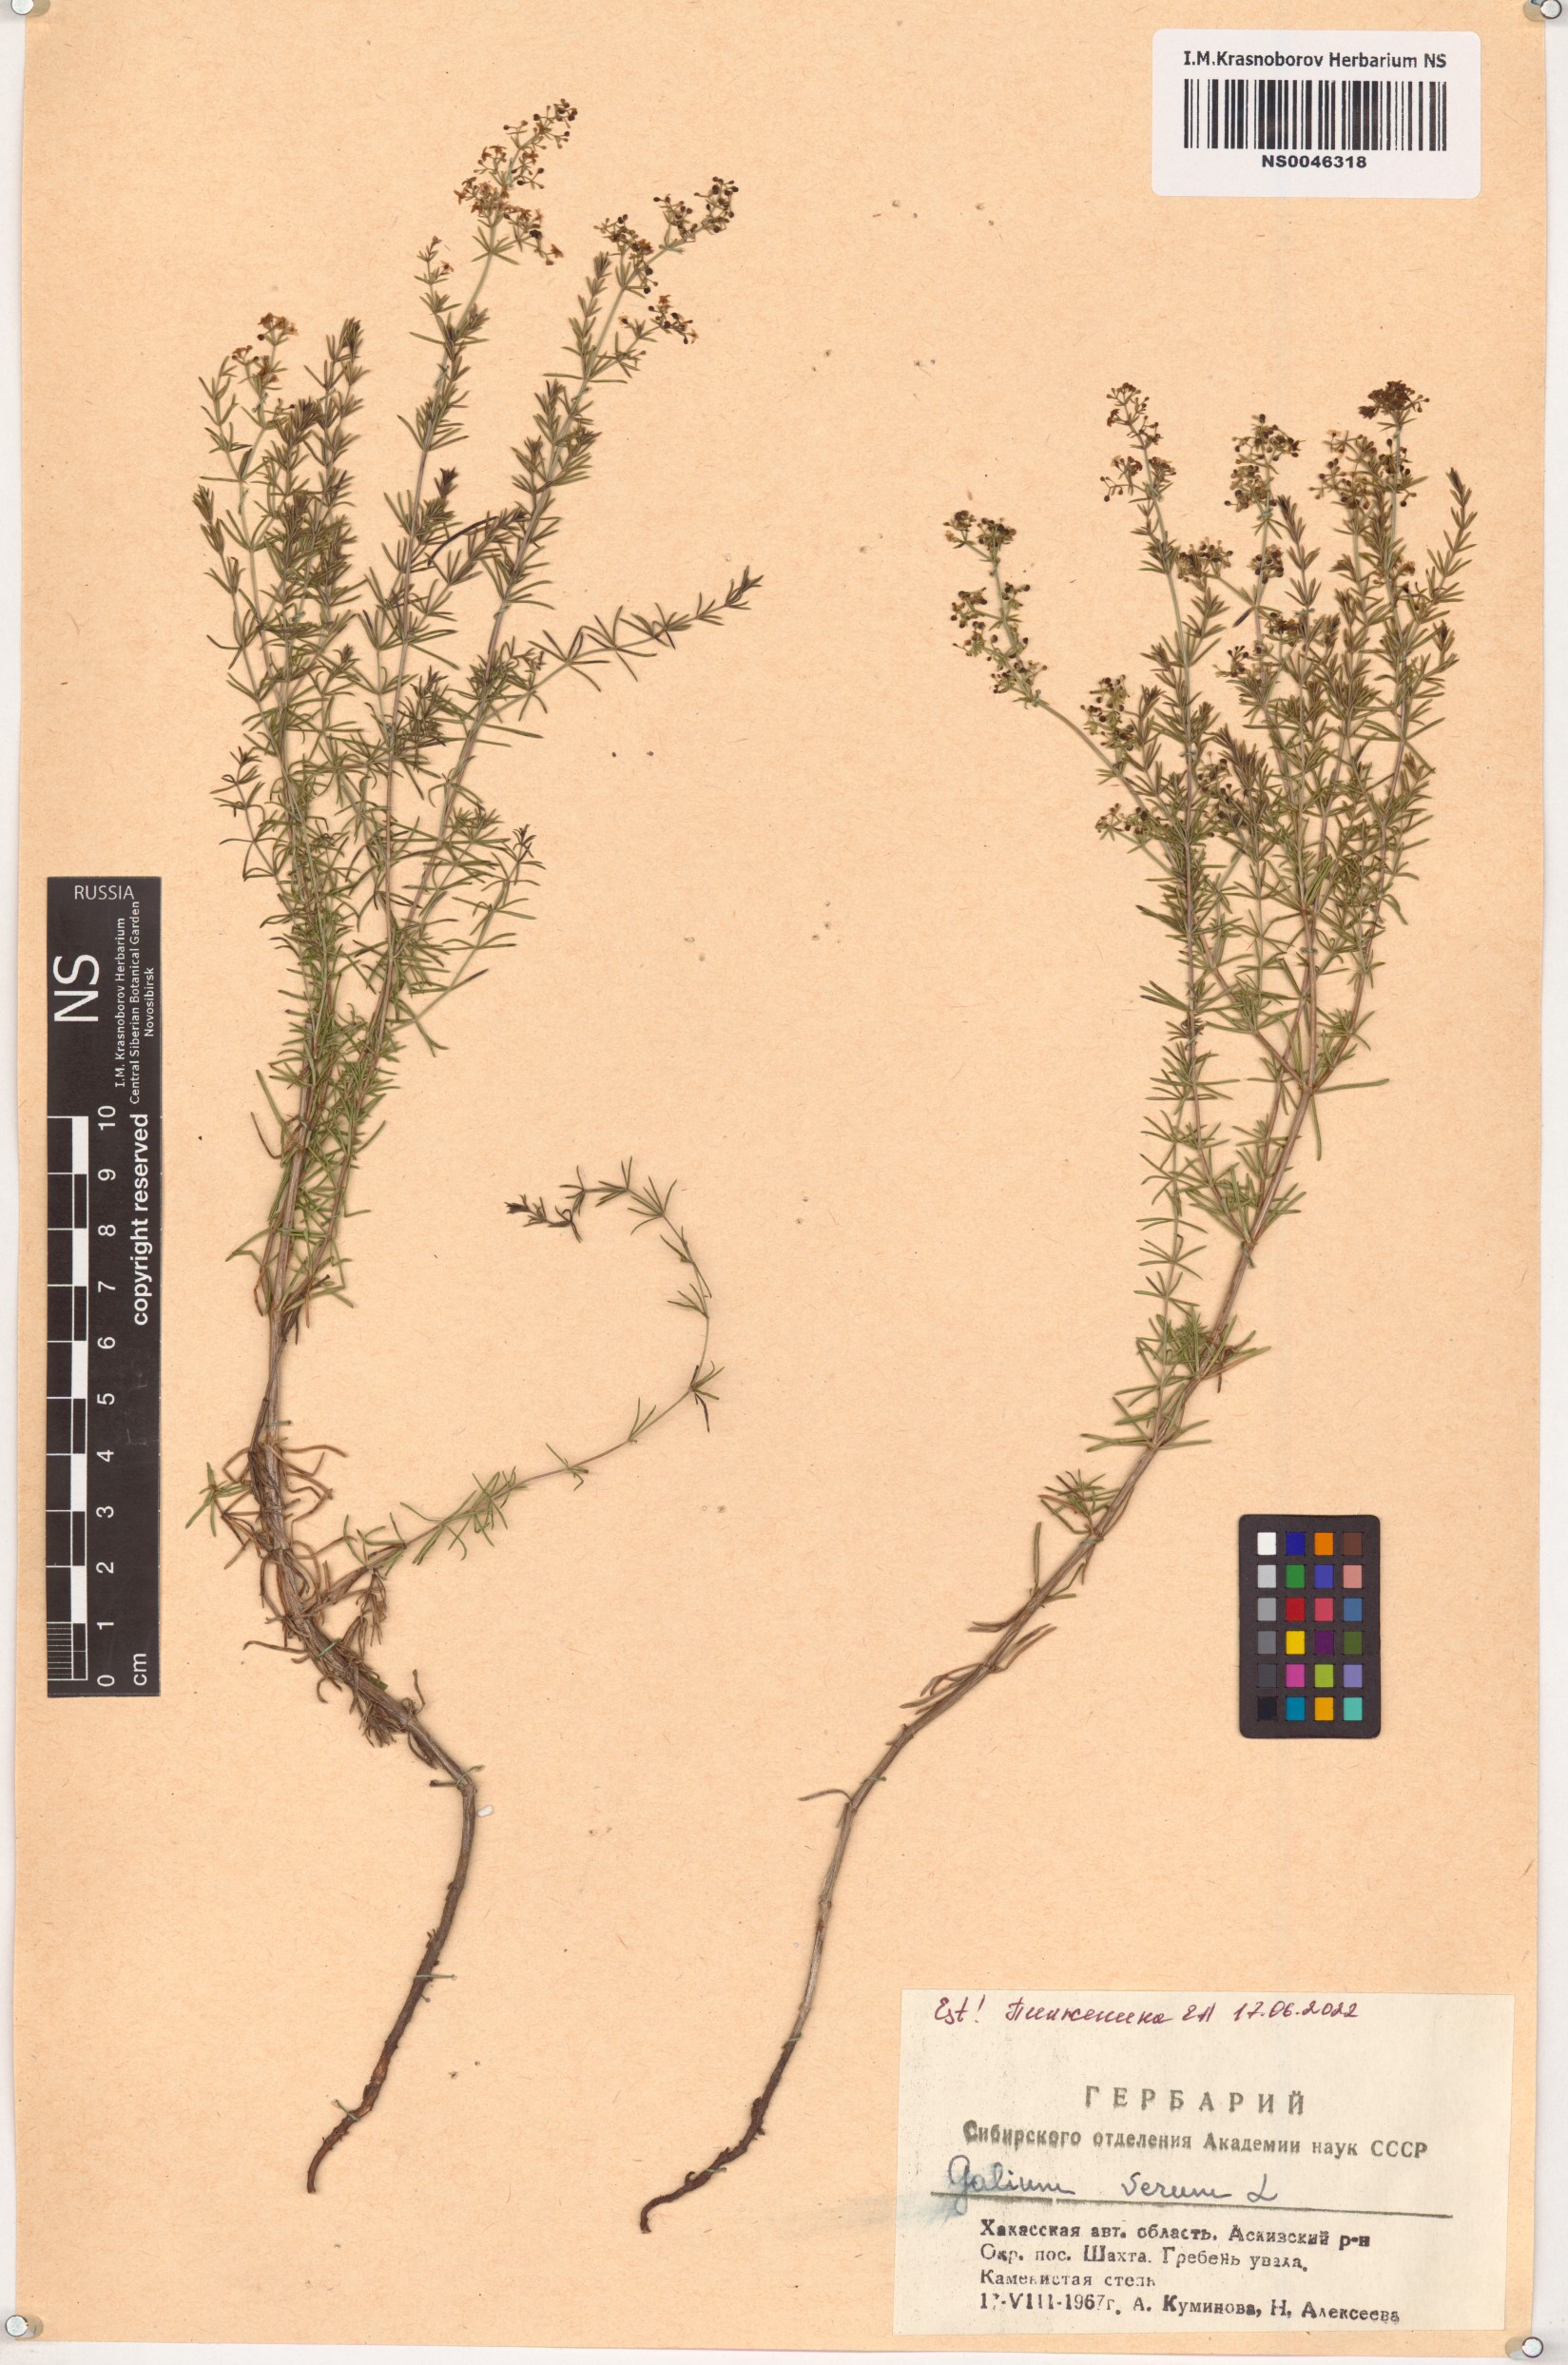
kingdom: Plantae
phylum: Tracheophyta
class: Magnoliopsida
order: Gentianales
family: Rubiaceae
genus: Galium
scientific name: Galium verum
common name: Lady's bedstraw
